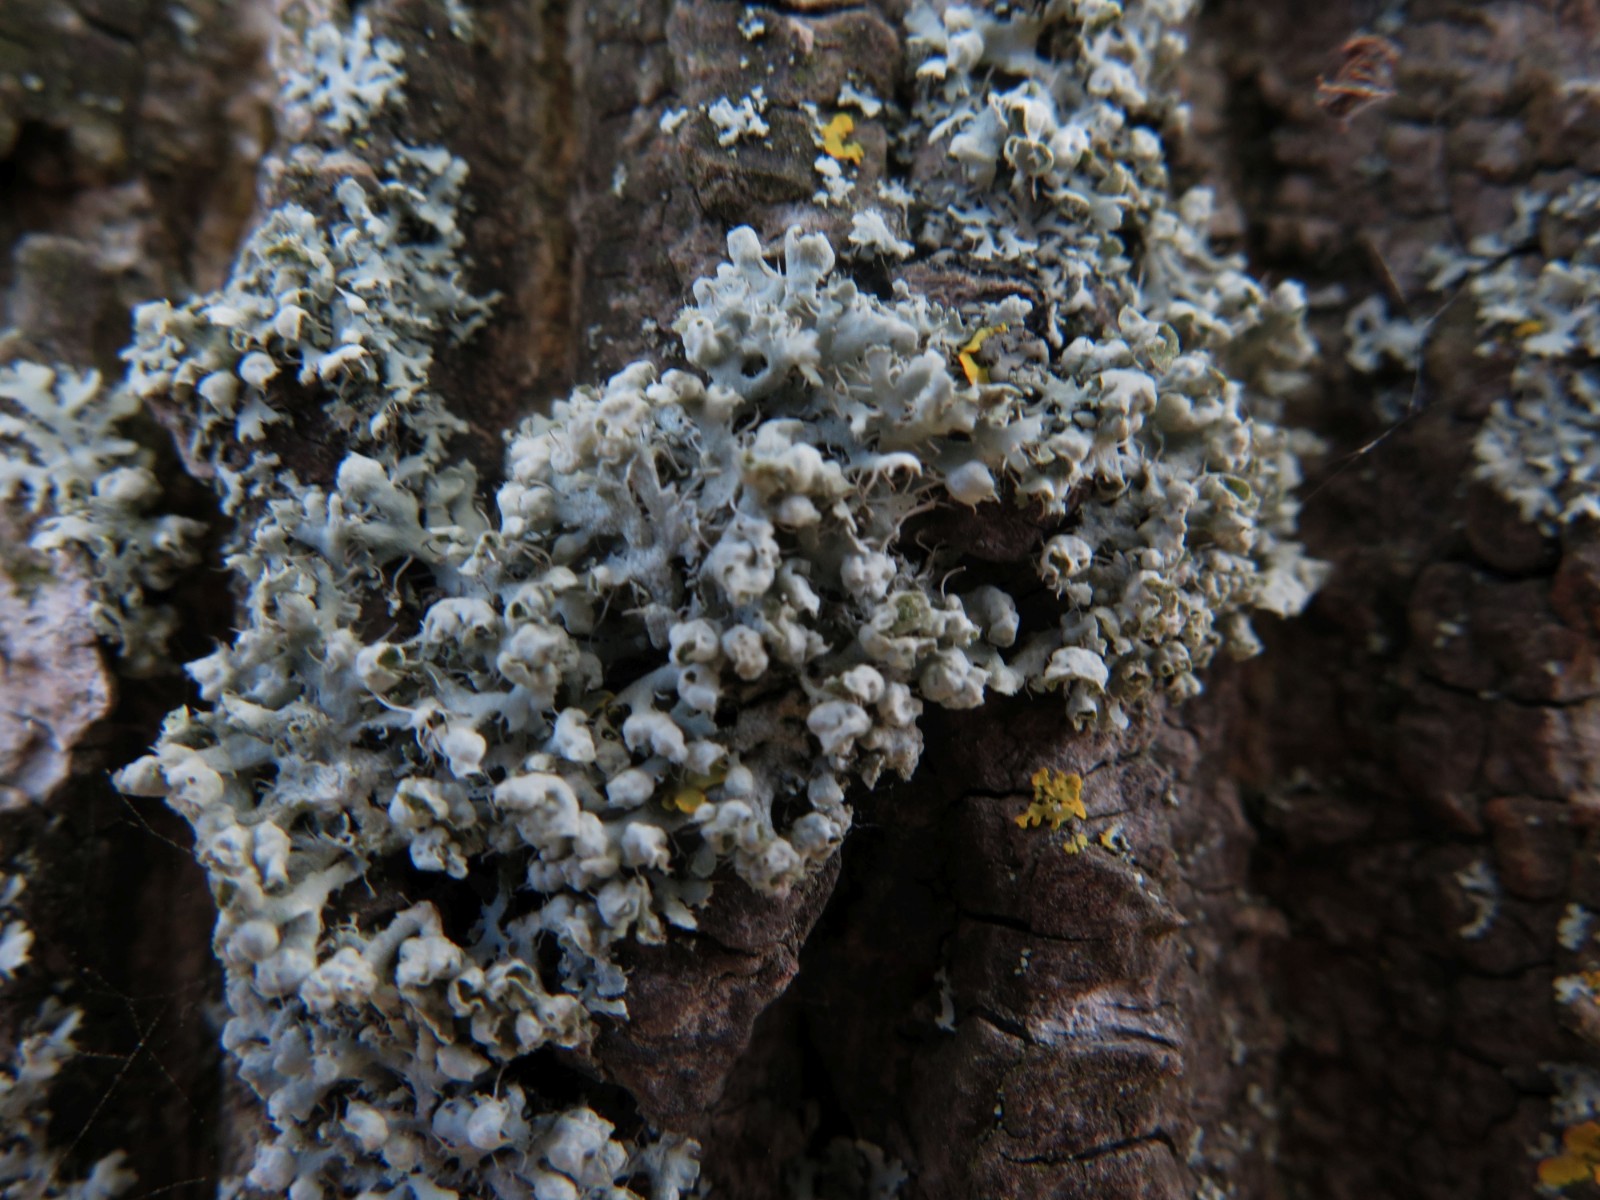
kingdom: Fungi
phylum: Ascomycota
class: Lecanoromycetes
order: Caliciales
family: Physciaceae
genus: Physcia
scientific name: Physcia adscendens
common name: hætte-rosetlav
